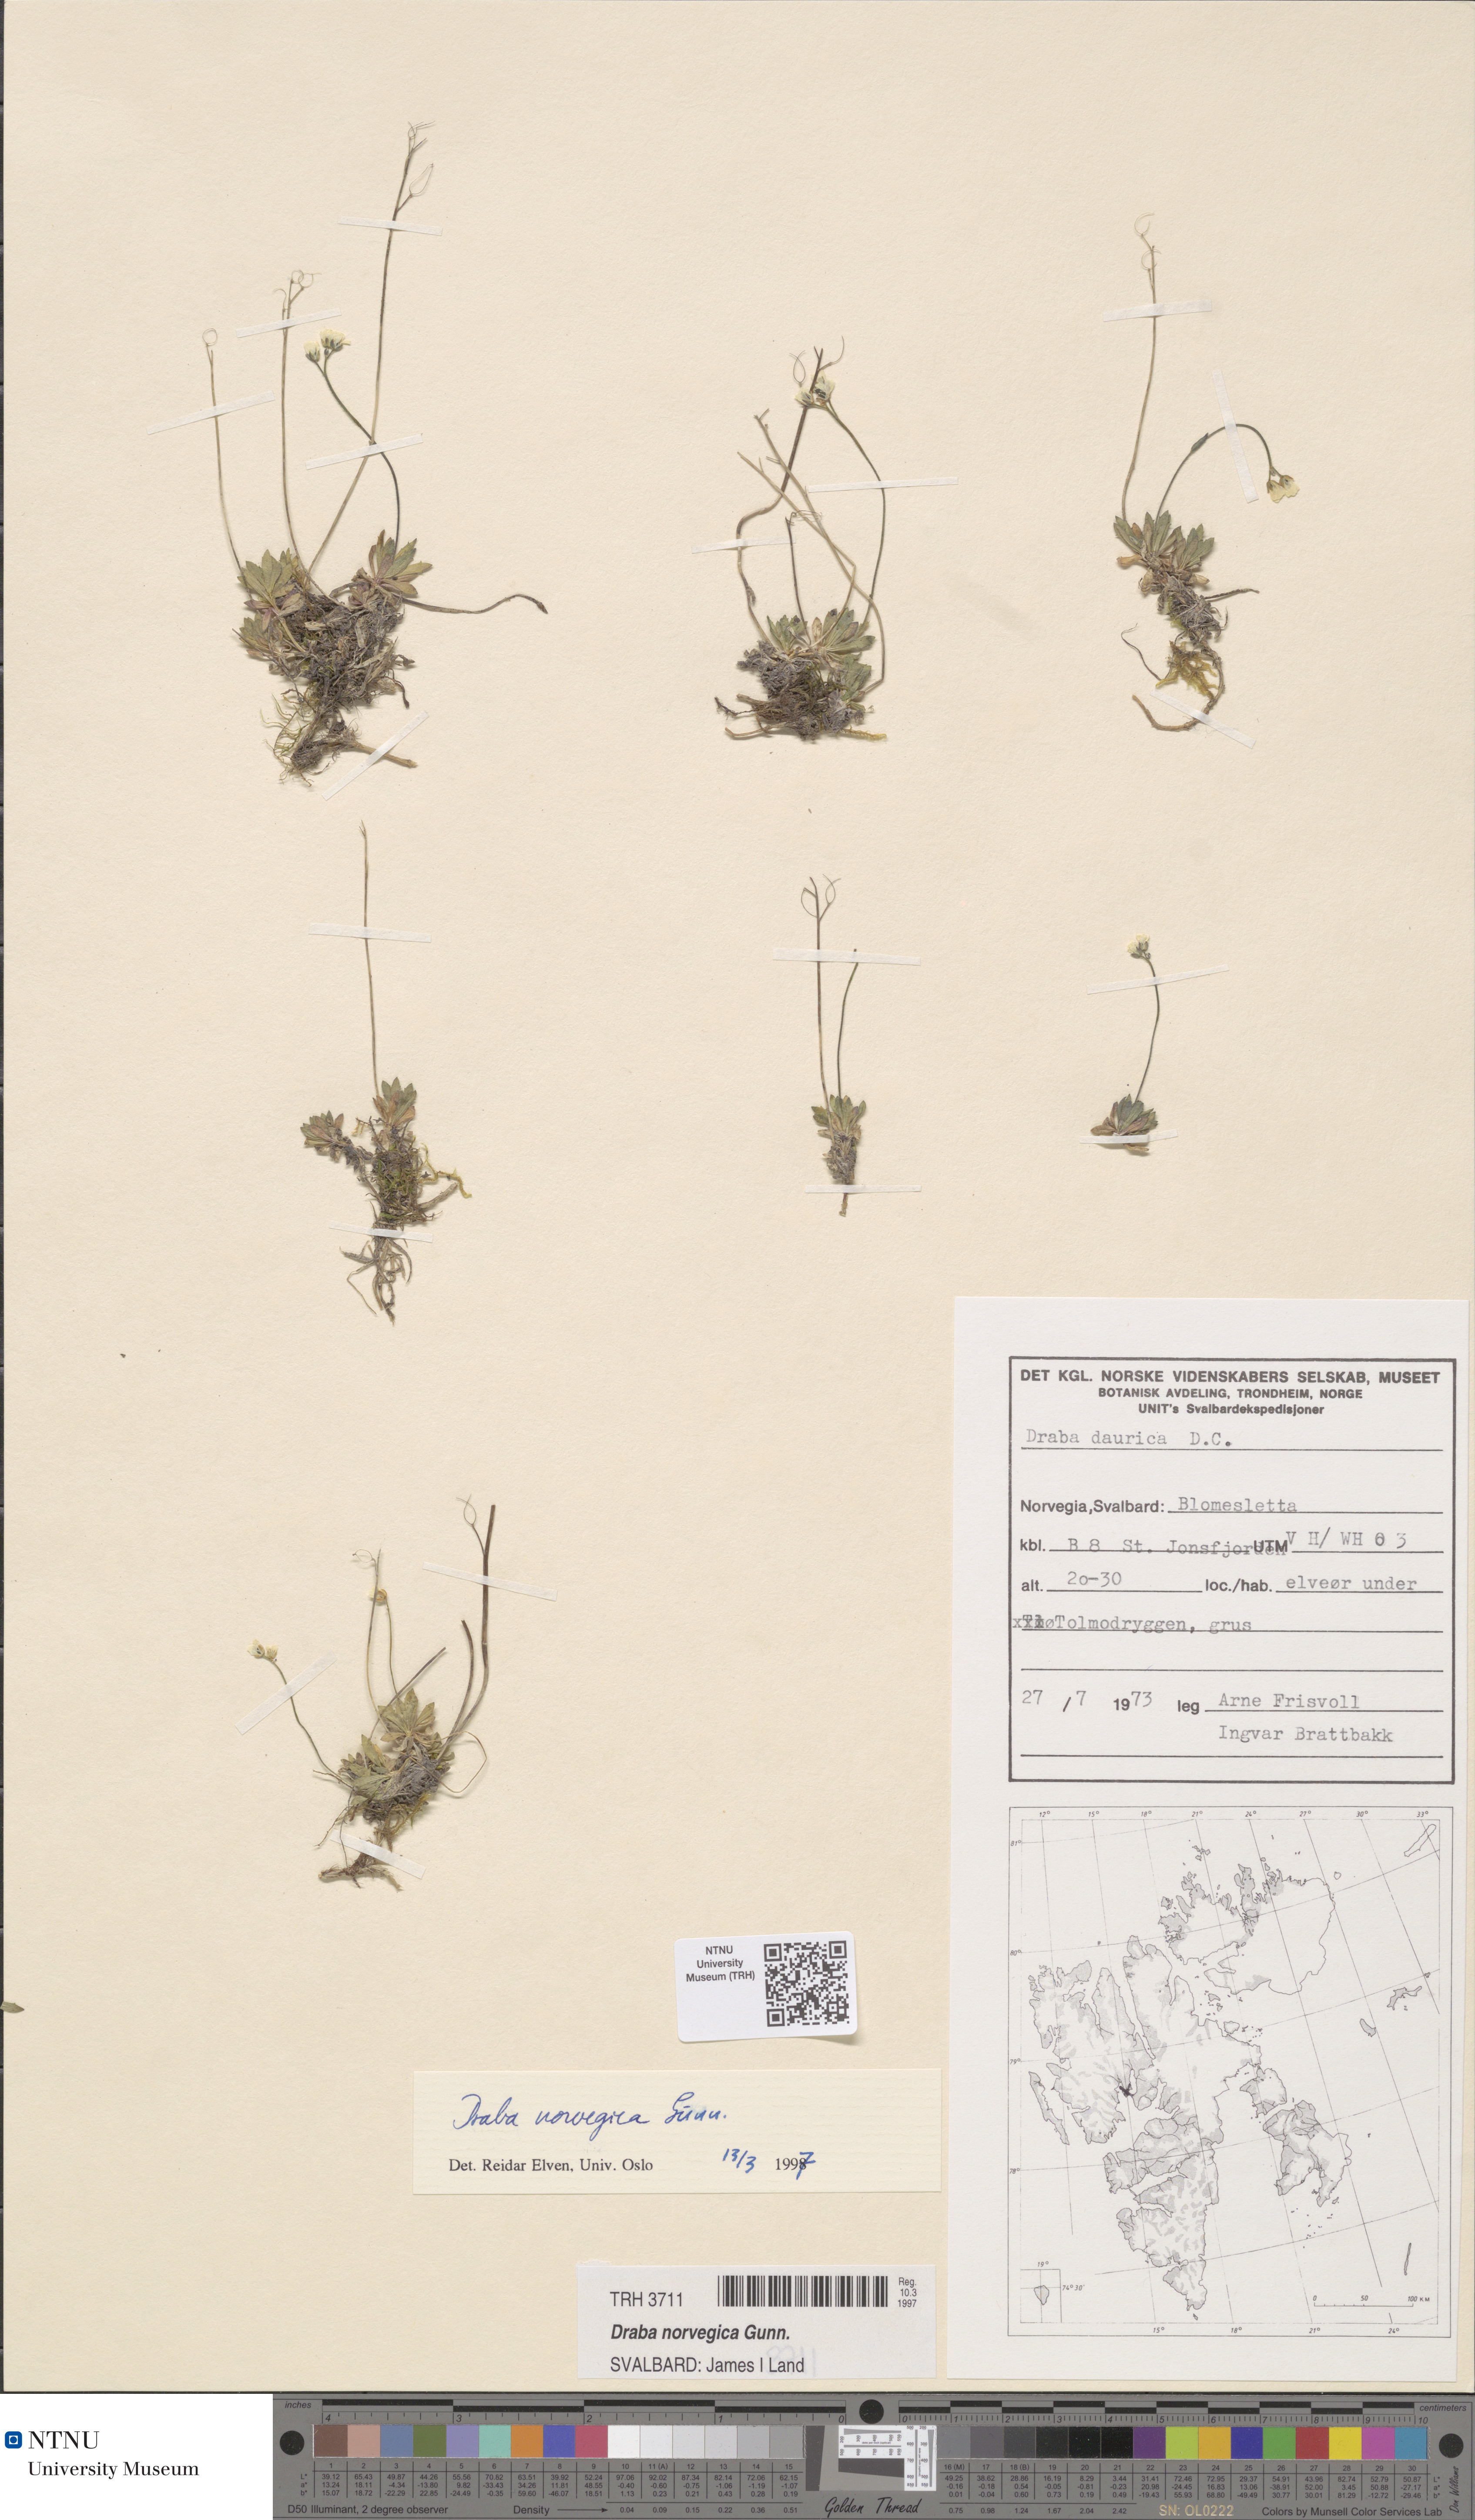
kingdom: Plantae
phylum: Tracheophyta
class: Magnoliopsida
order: Brassicales
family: Brassicaceae
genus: Draba
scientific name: Draba norvegica
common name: Rock whitlowgrass
